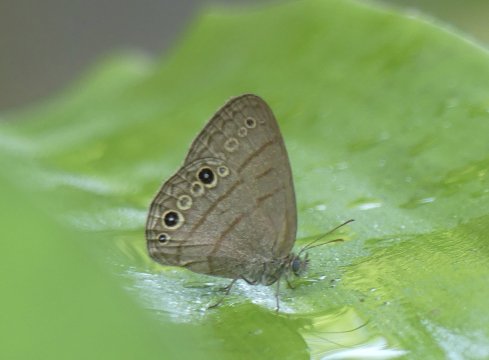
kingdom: Animalia
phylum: Arthropoda
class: Insecta
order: Lepidoptera
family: Nymphalidae
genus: Hermeuptychia
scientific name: Hermeuptychia hermes
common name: Hermes Satyr
